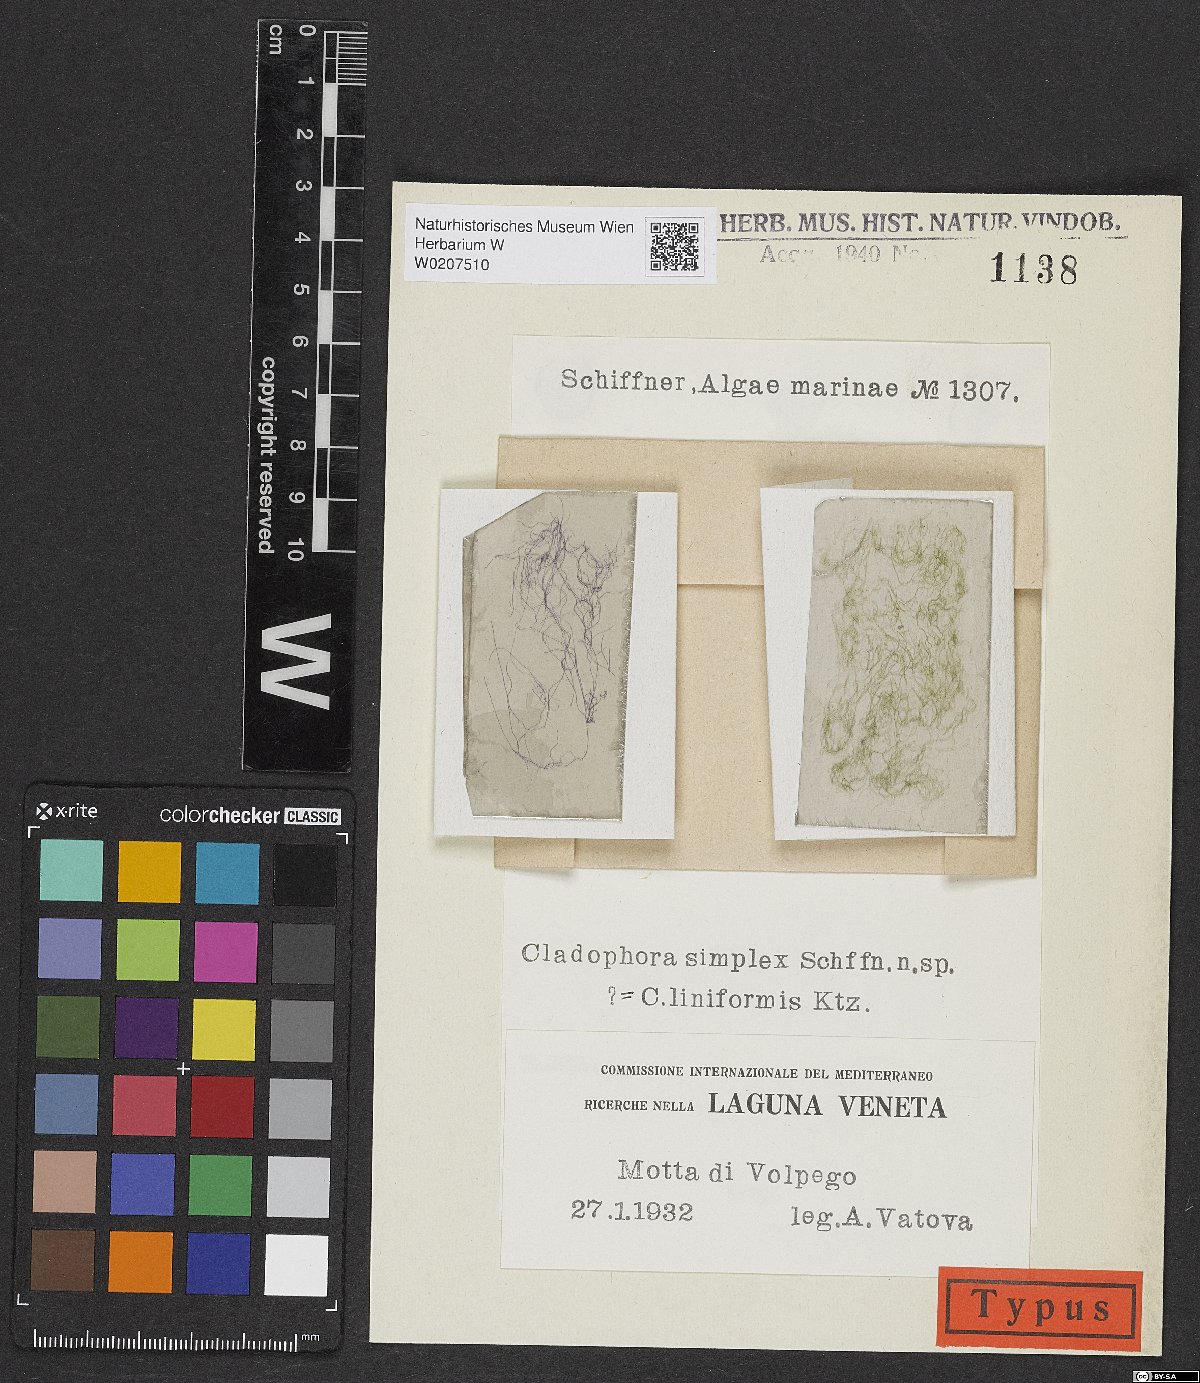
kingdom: Plantae
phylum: Chlorophyta
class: Ulvophyceae
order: Cladophorales
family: Cladophoraceae
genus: Cladophora
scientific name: Cladophora liniformis
